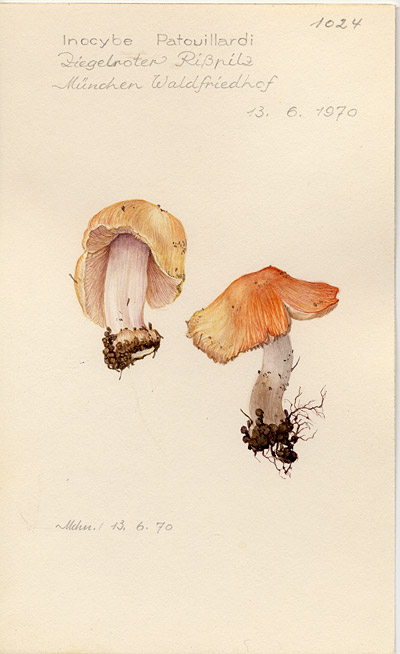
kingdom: Fungi
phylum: Basidiomycota
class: Agaricomycetes
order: Agaricales
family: Inocybaceae
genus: Inosperma
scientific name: Inosperma erubescens
